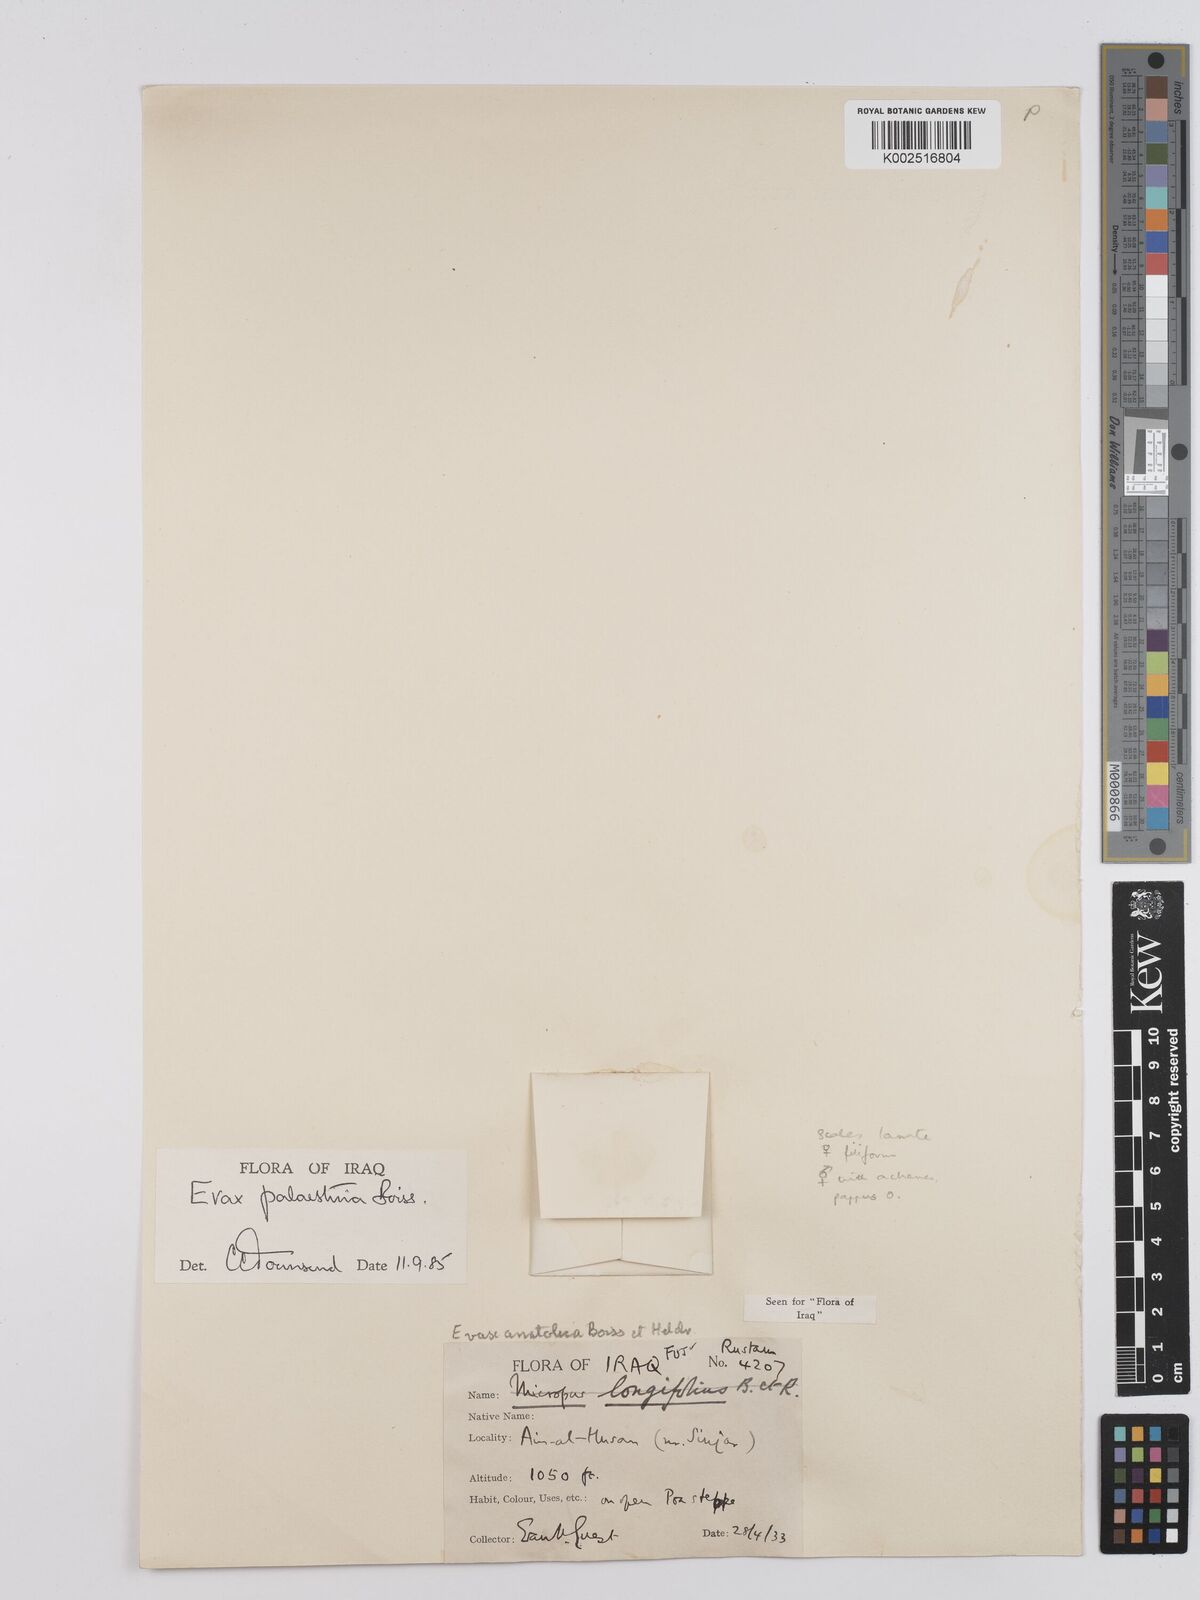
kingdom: Plantae
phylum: Tracheophyta
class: Magnoliopsida
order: Asterales
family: Asteraceae
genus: Filago
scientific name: Filago palaestina
